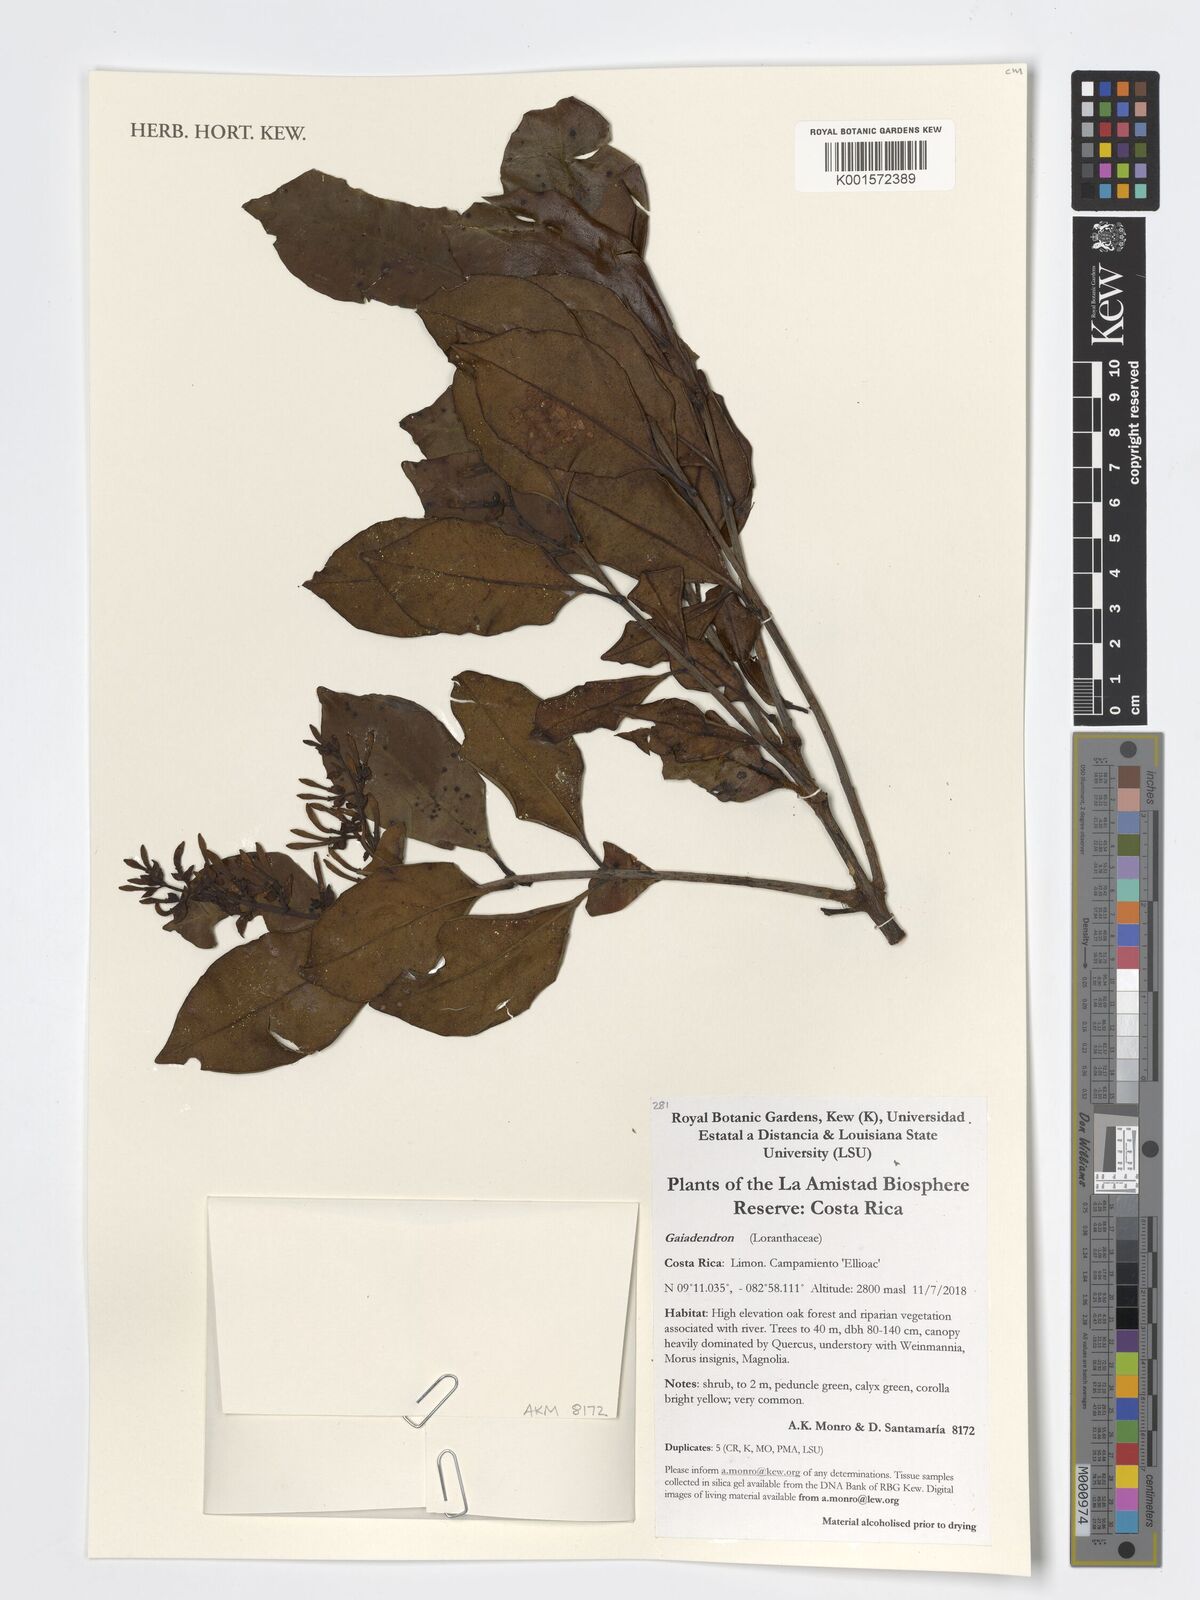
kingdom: Plantae
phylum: Tracheophyta
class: Magnoliopsida
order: Santalales
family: Loranthaceae
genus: Gaiadendron
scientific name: Gaiadendron
